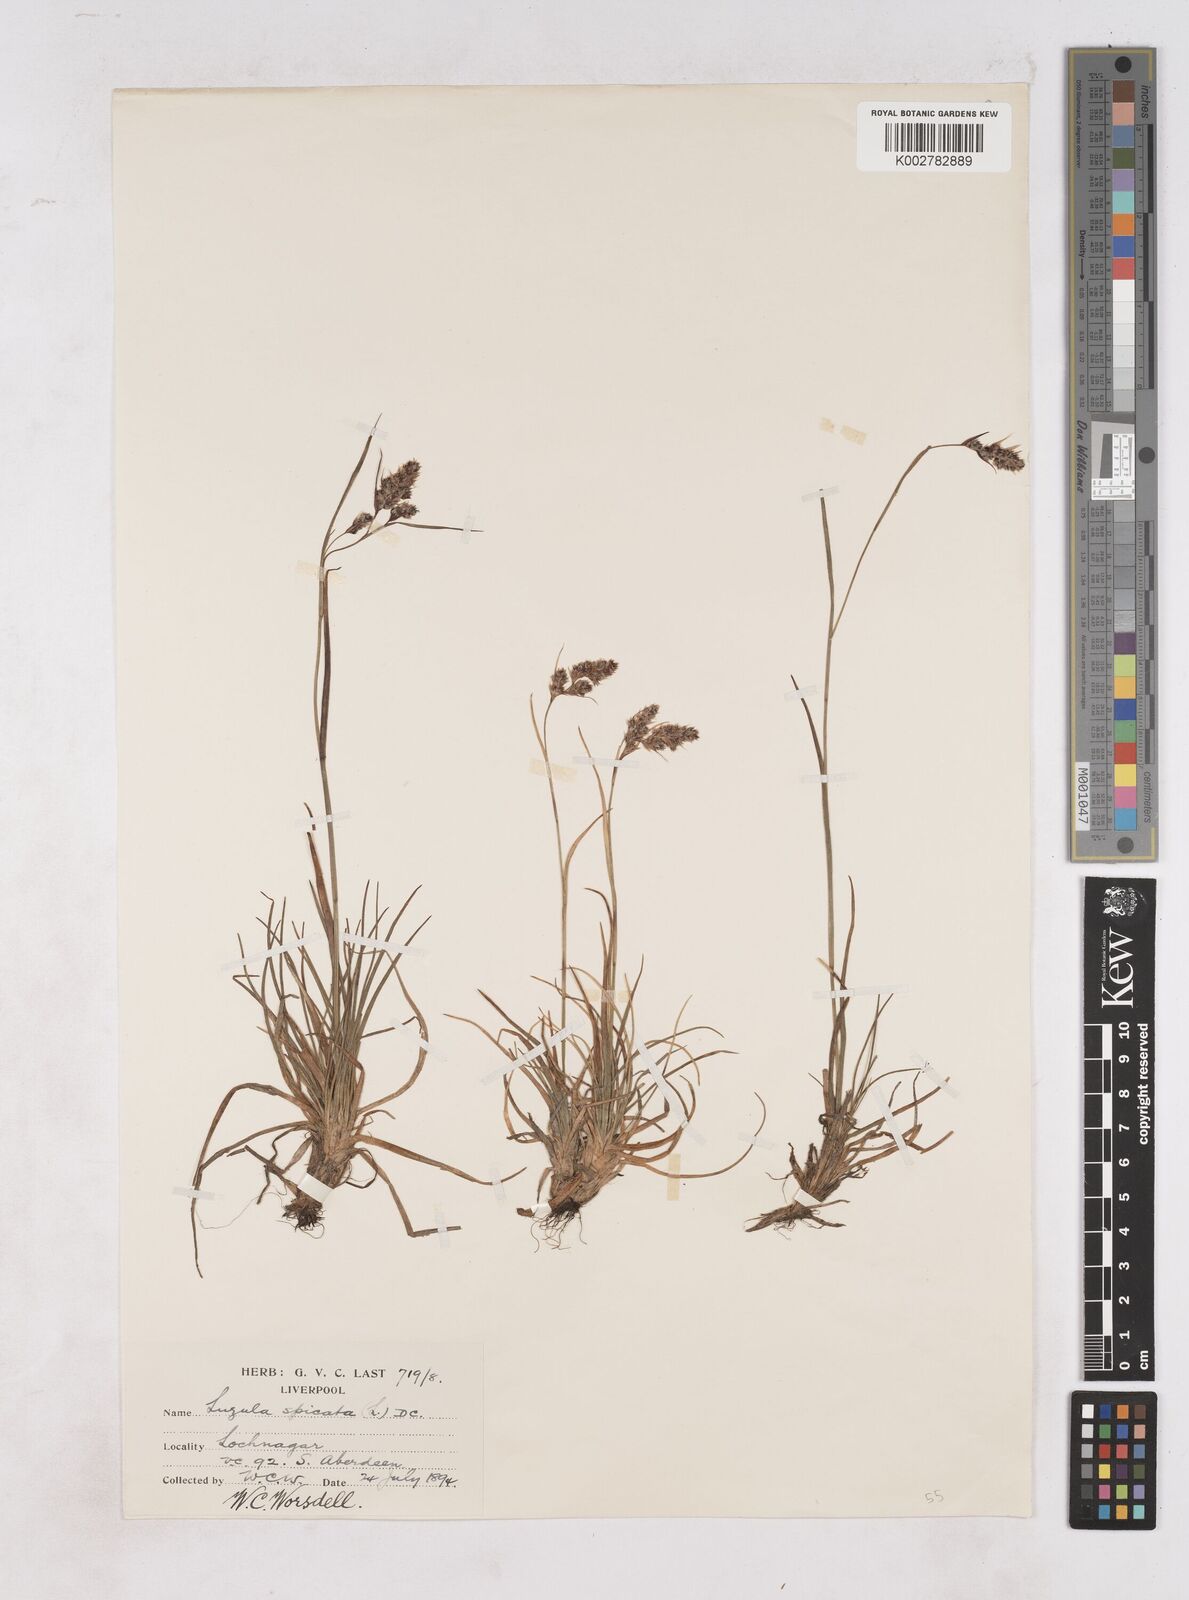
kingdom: Plantae
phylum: Tracheophyta
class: Liliopsida
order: Poales
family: Juncaceae
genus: Luzula
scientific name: Luzula campestris
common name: Field wood-rush
